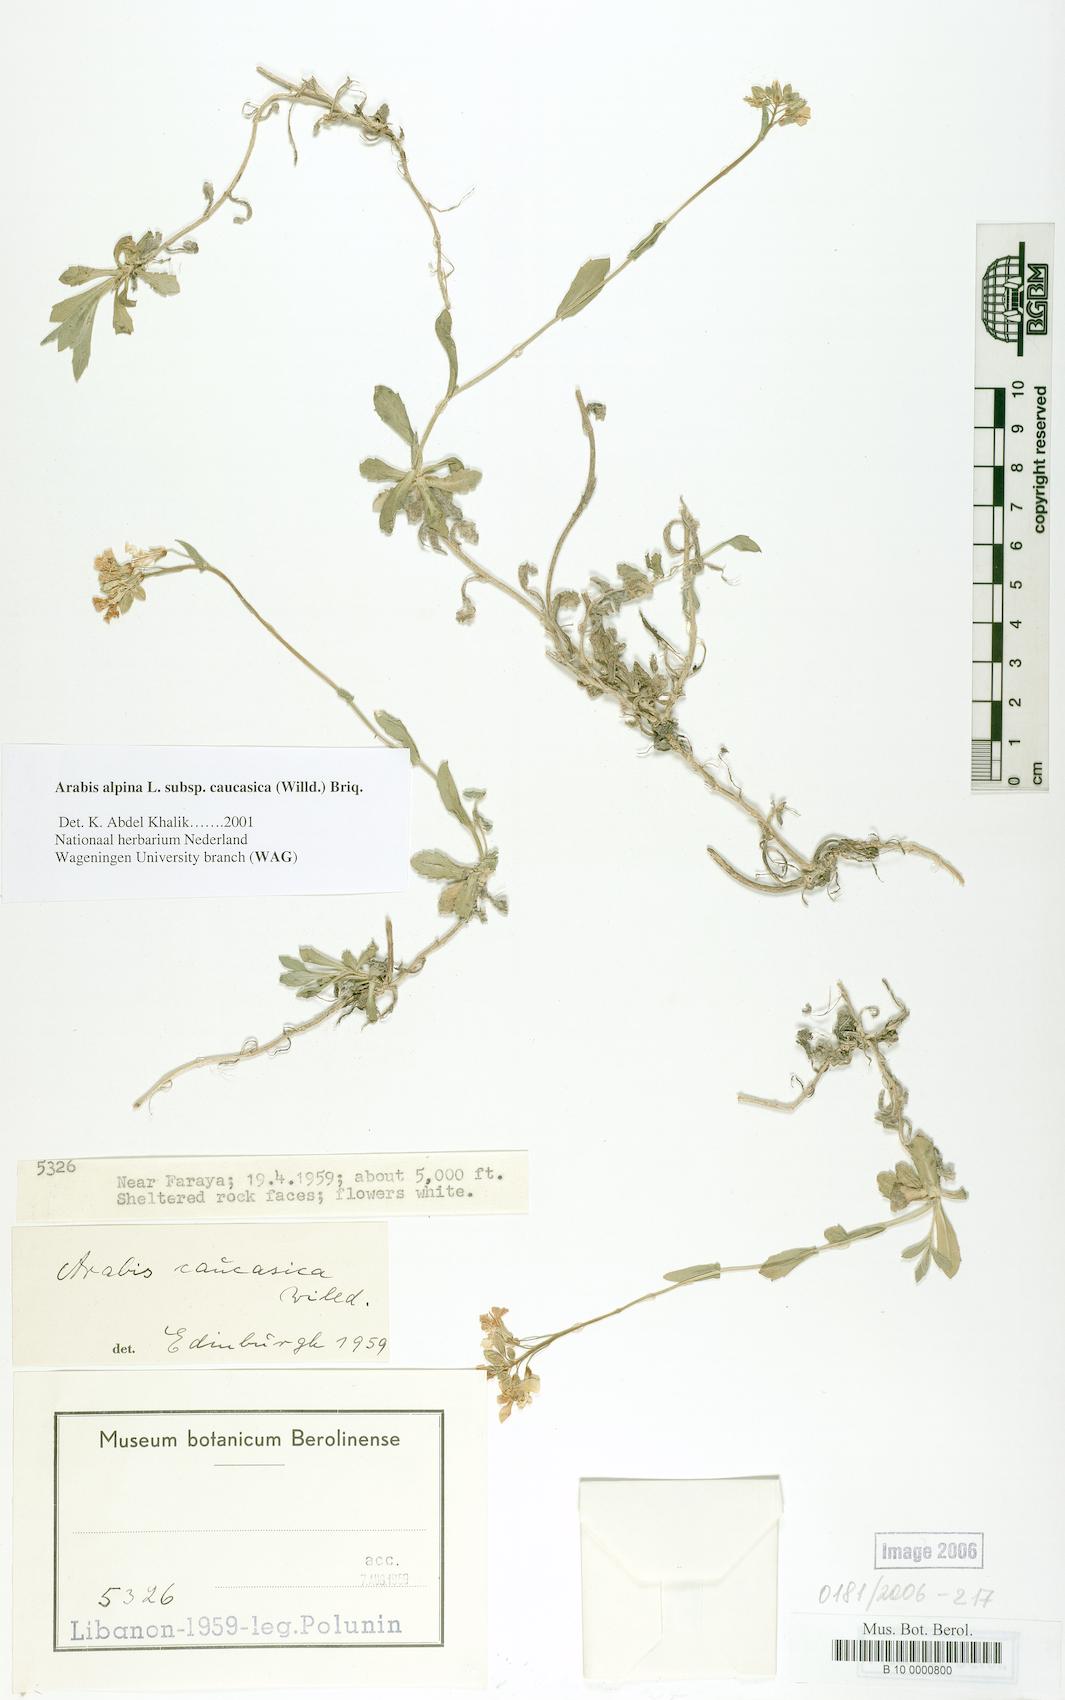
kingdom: Plantae
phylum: Tracheophyta
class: Magnoliopsida
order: Brassicales
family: Brassicaceae
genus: Arabis
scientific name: Arabis caucasica
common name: Gray rockcress
